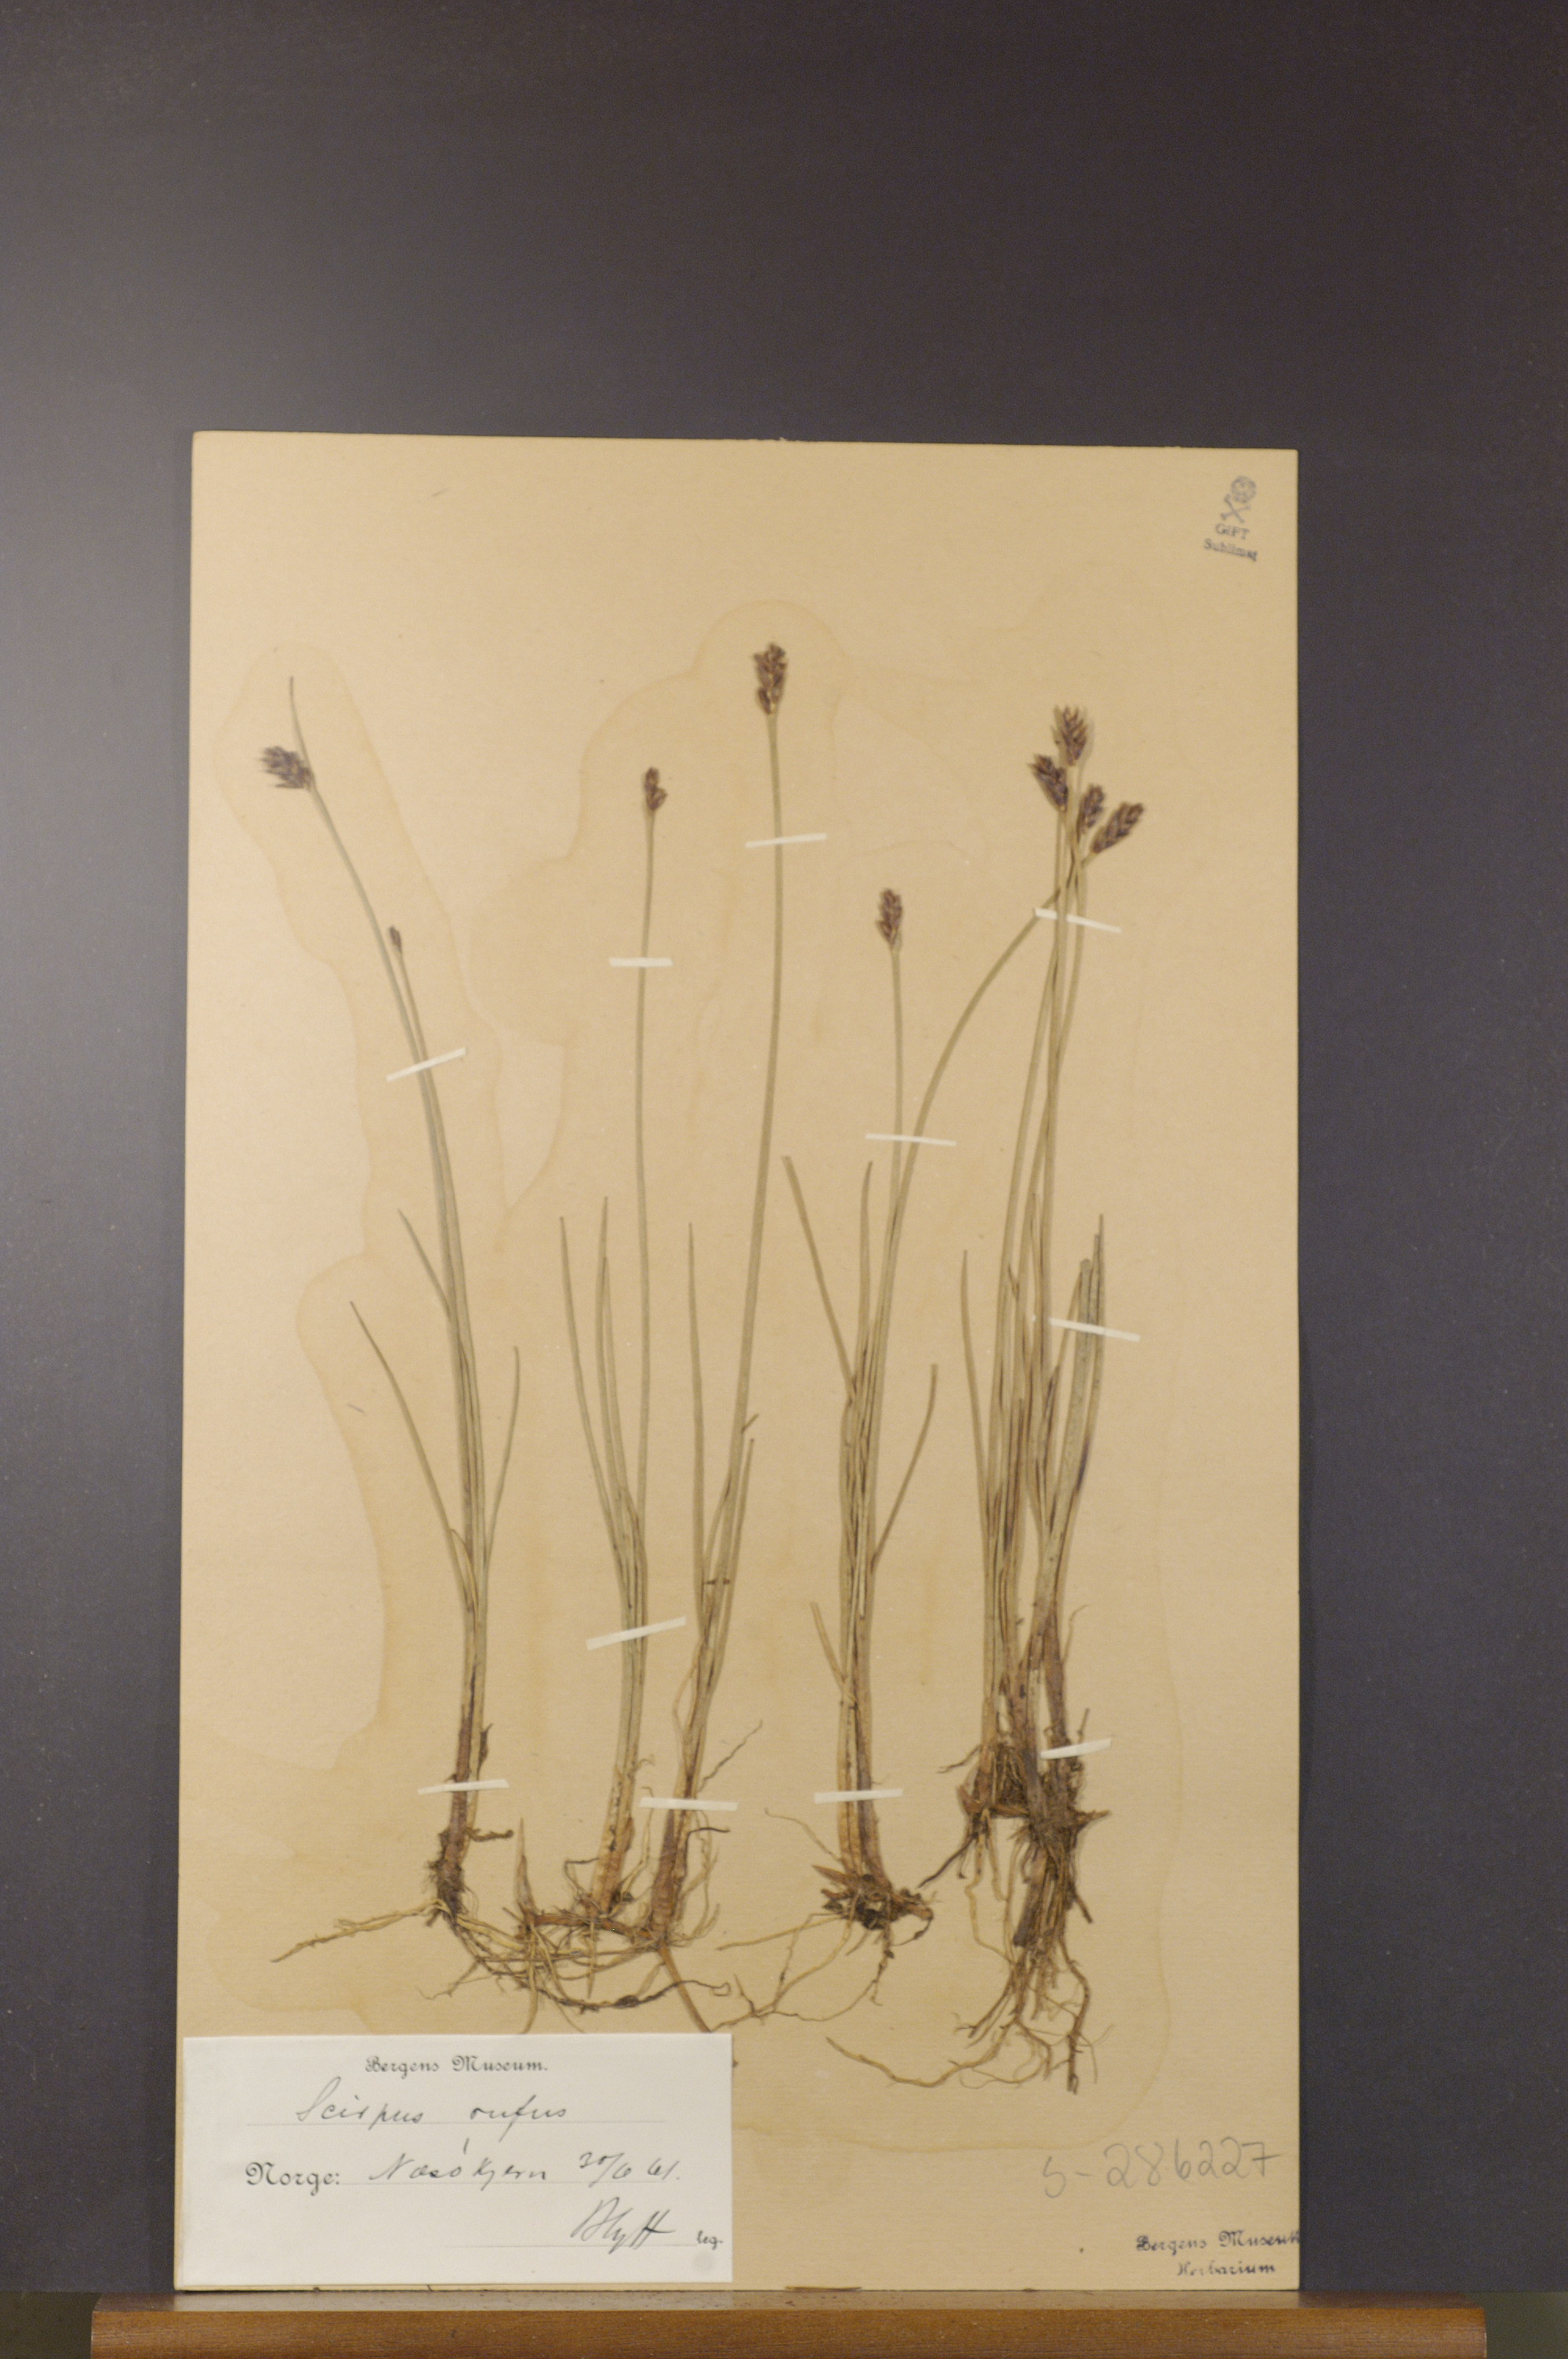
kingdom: Plantae
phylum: Tracheophyta
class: Liliopsida
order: Poales
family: Cyperaceae
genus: Blysmus
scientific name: Blysmus rufus
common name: Saltmarsh flat-sedge
